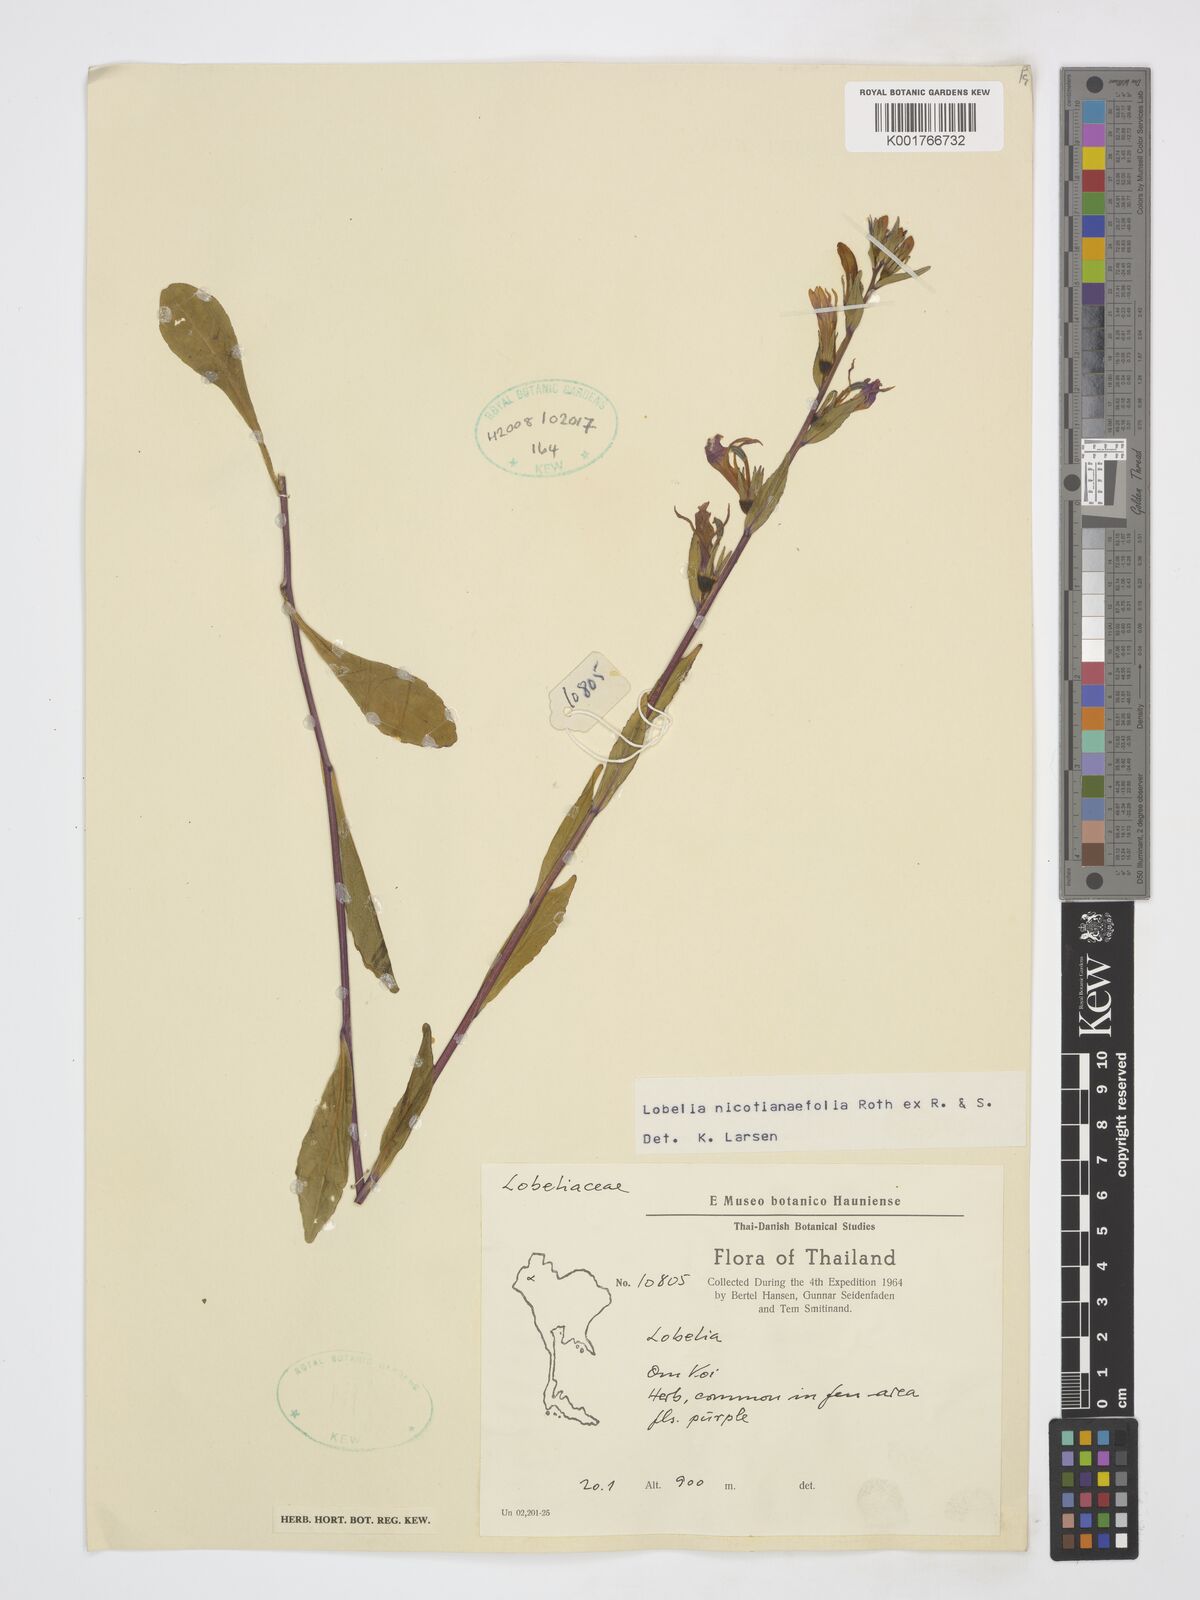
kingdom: Plantae
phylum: Tracheophyta
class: Magnoliopsida
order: Asterales
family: Campanulaceae
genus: Lobelia
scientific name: Lobelia nicotianifolia
